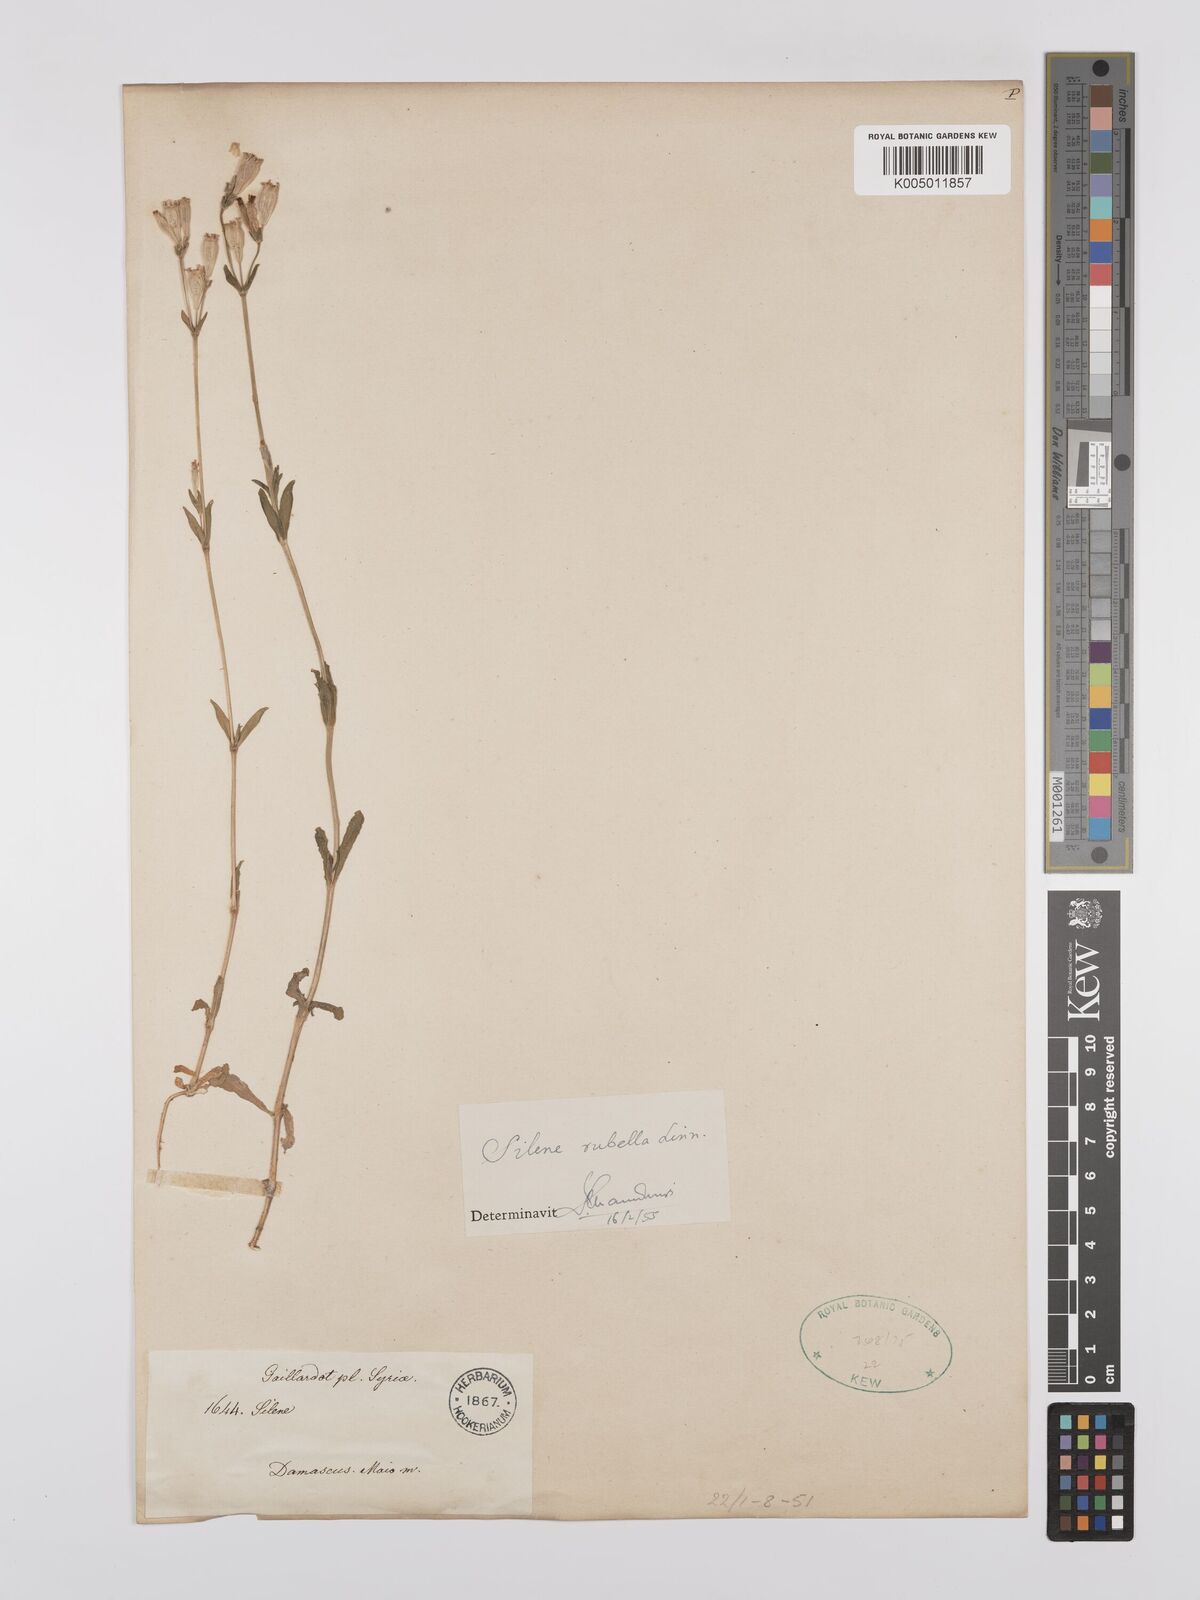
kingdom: Plantae
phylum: Tracheophyta
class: Magnoliopsida
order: Caryophyllales
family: Caryophyllaceae
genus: Silene
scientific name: Silene rubella
